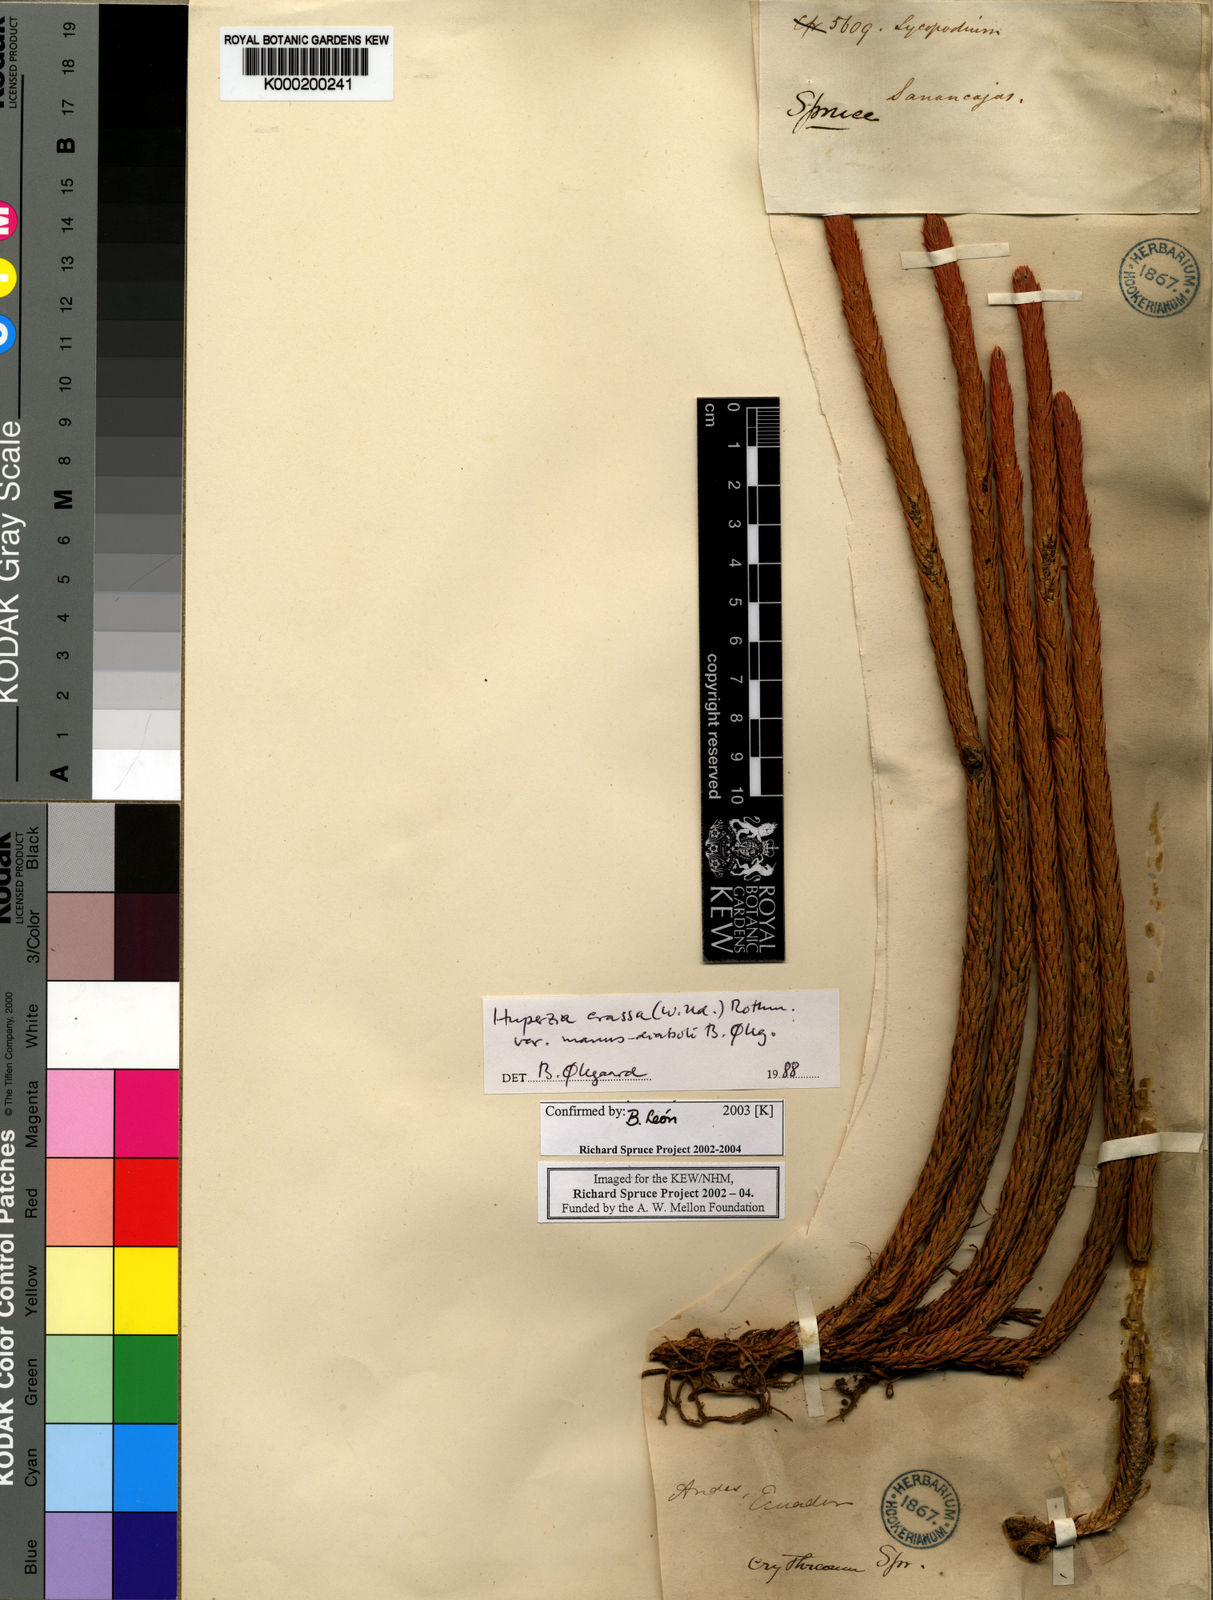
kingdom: Plantae
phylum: Tracheophyta
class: Lycopodiopsida
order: Lycopodiales
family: Lycopodiaceae
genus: Phlegmariurus
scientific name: Phlegmariurus crassus
